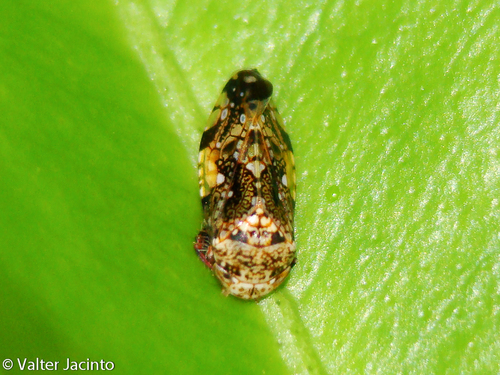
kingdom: Animalia
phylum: Arthropoda
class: Insecta
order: Hemiptera
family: Cicadellidae
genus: Penthimiola
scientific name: Penthimiola bella
